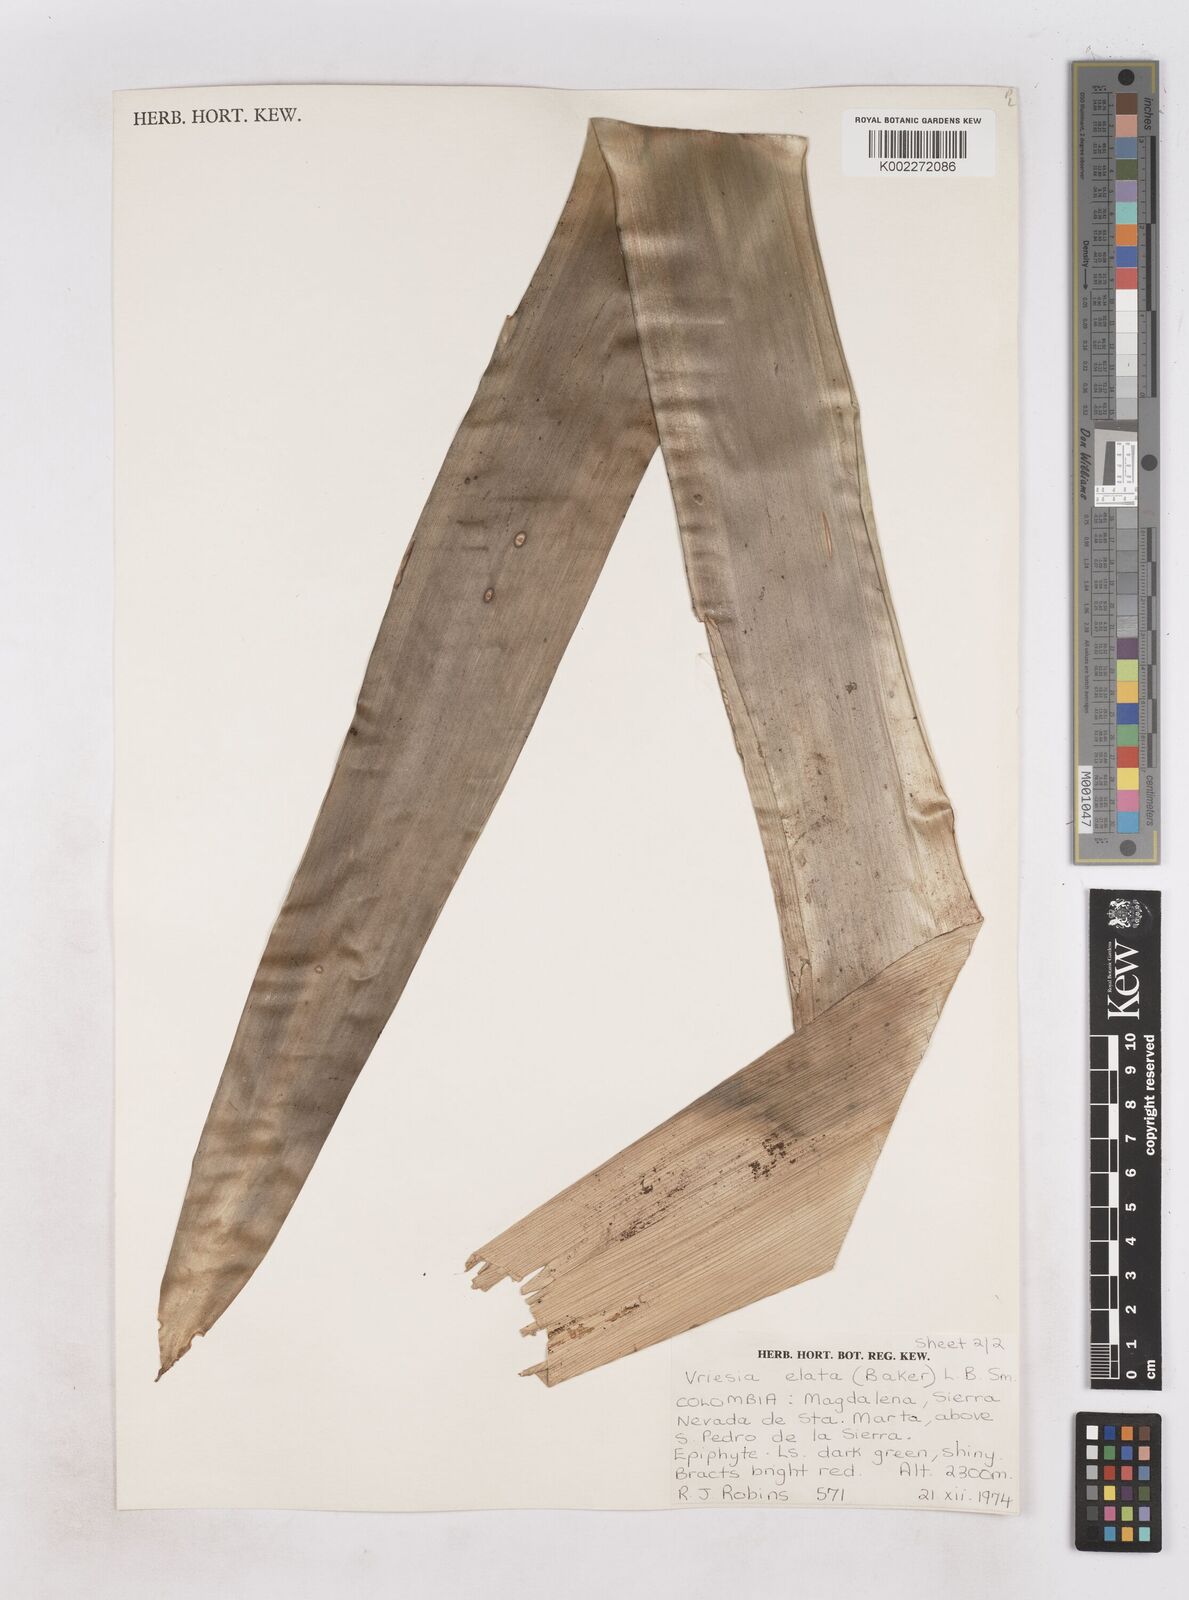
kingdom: Plantae
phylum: Tracheophyta
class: Liliopsida
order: Poales
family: Bromeliaceae
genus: Vriesea
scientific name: Vriesea elata
